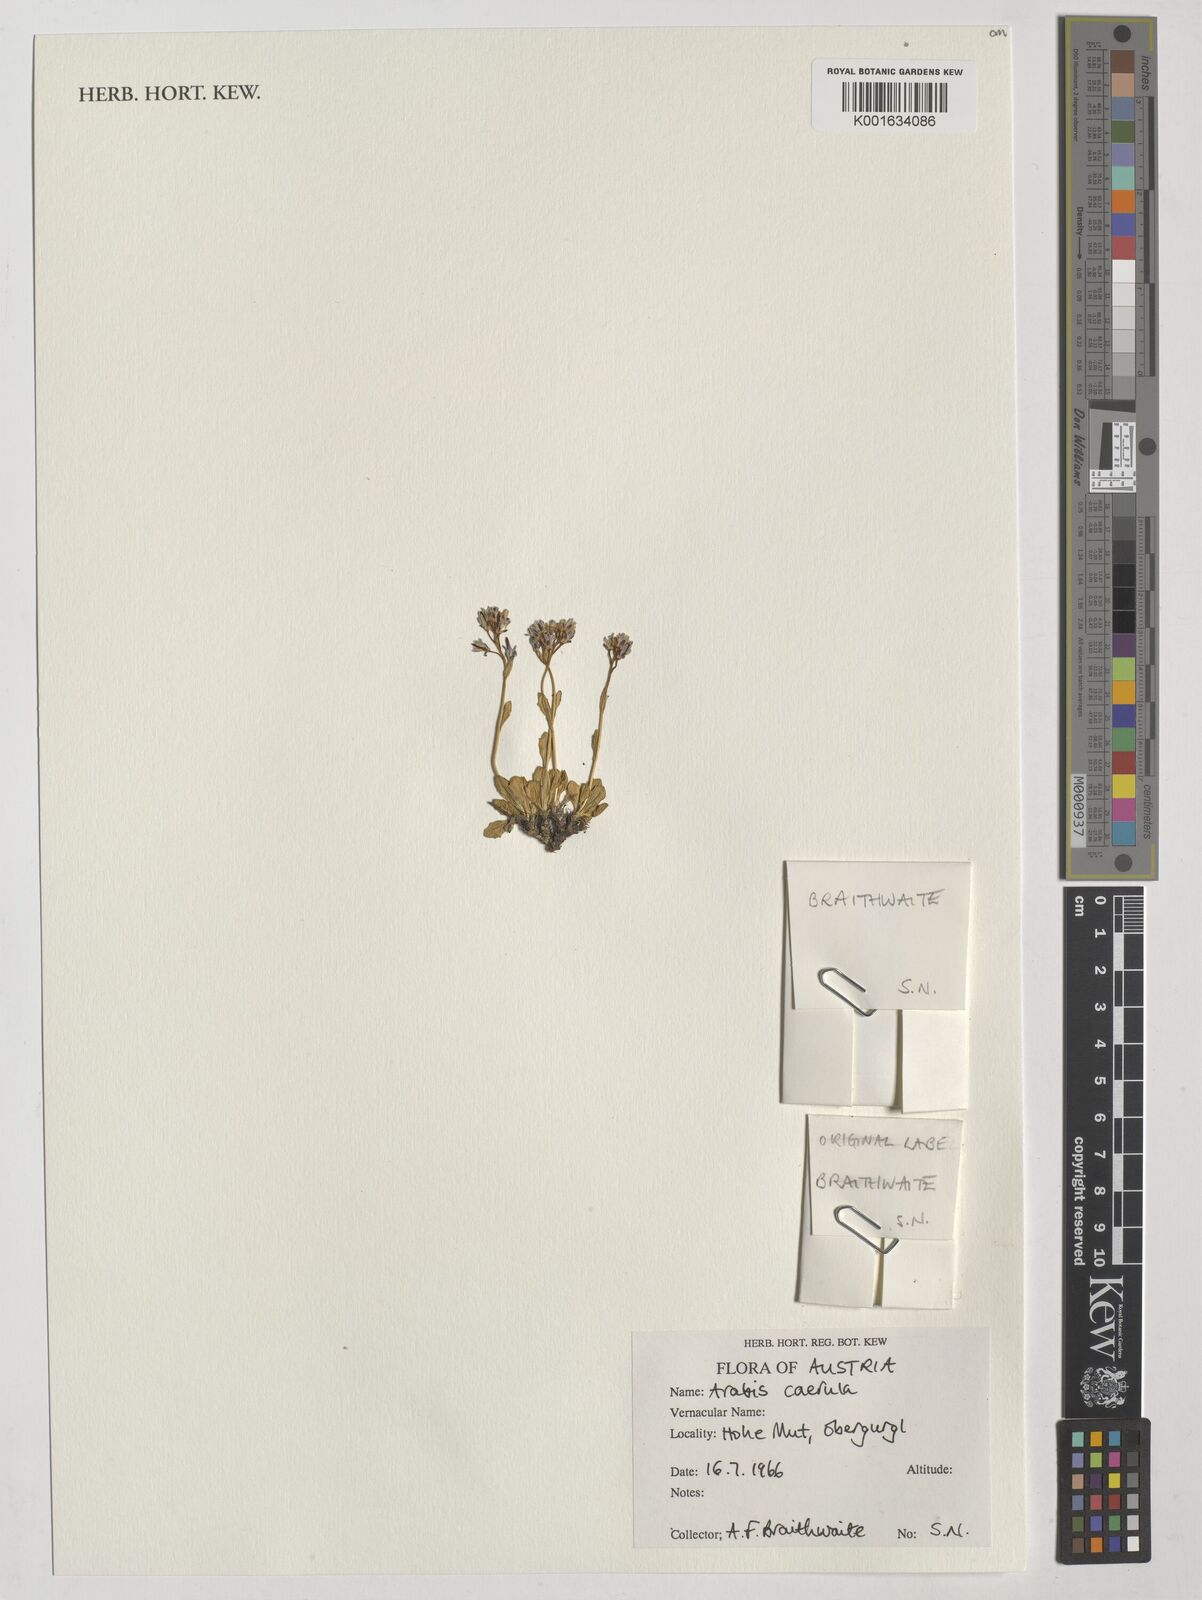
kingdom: Plantae
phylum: Tracheophyta
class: Magnoliopsida
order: Brassicales
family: Brassicaceae
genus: Arabis
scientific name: Arabis caerulea
